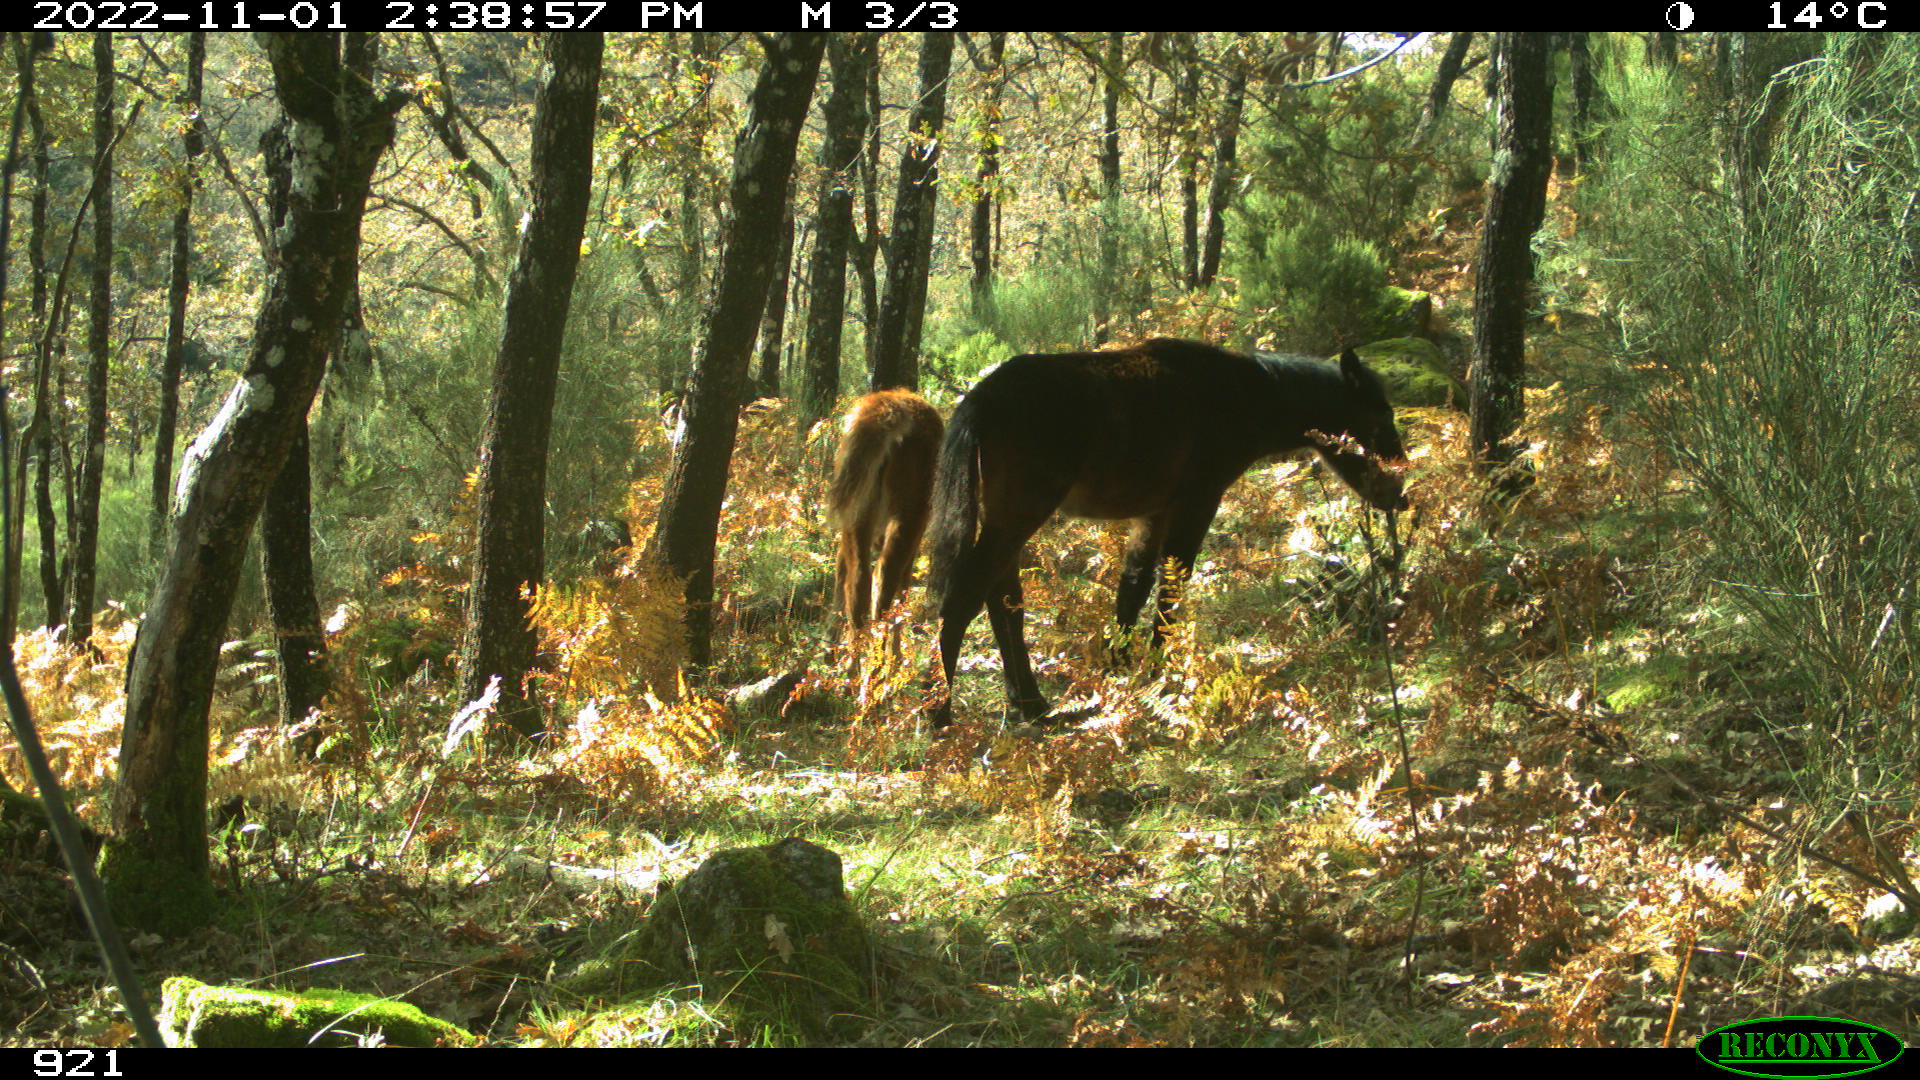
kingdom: Animalia
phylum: Chordata
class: Mammalia
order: Perissodactyla
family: Equidae
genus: Equus
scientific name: Equus caballus
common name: Horse
